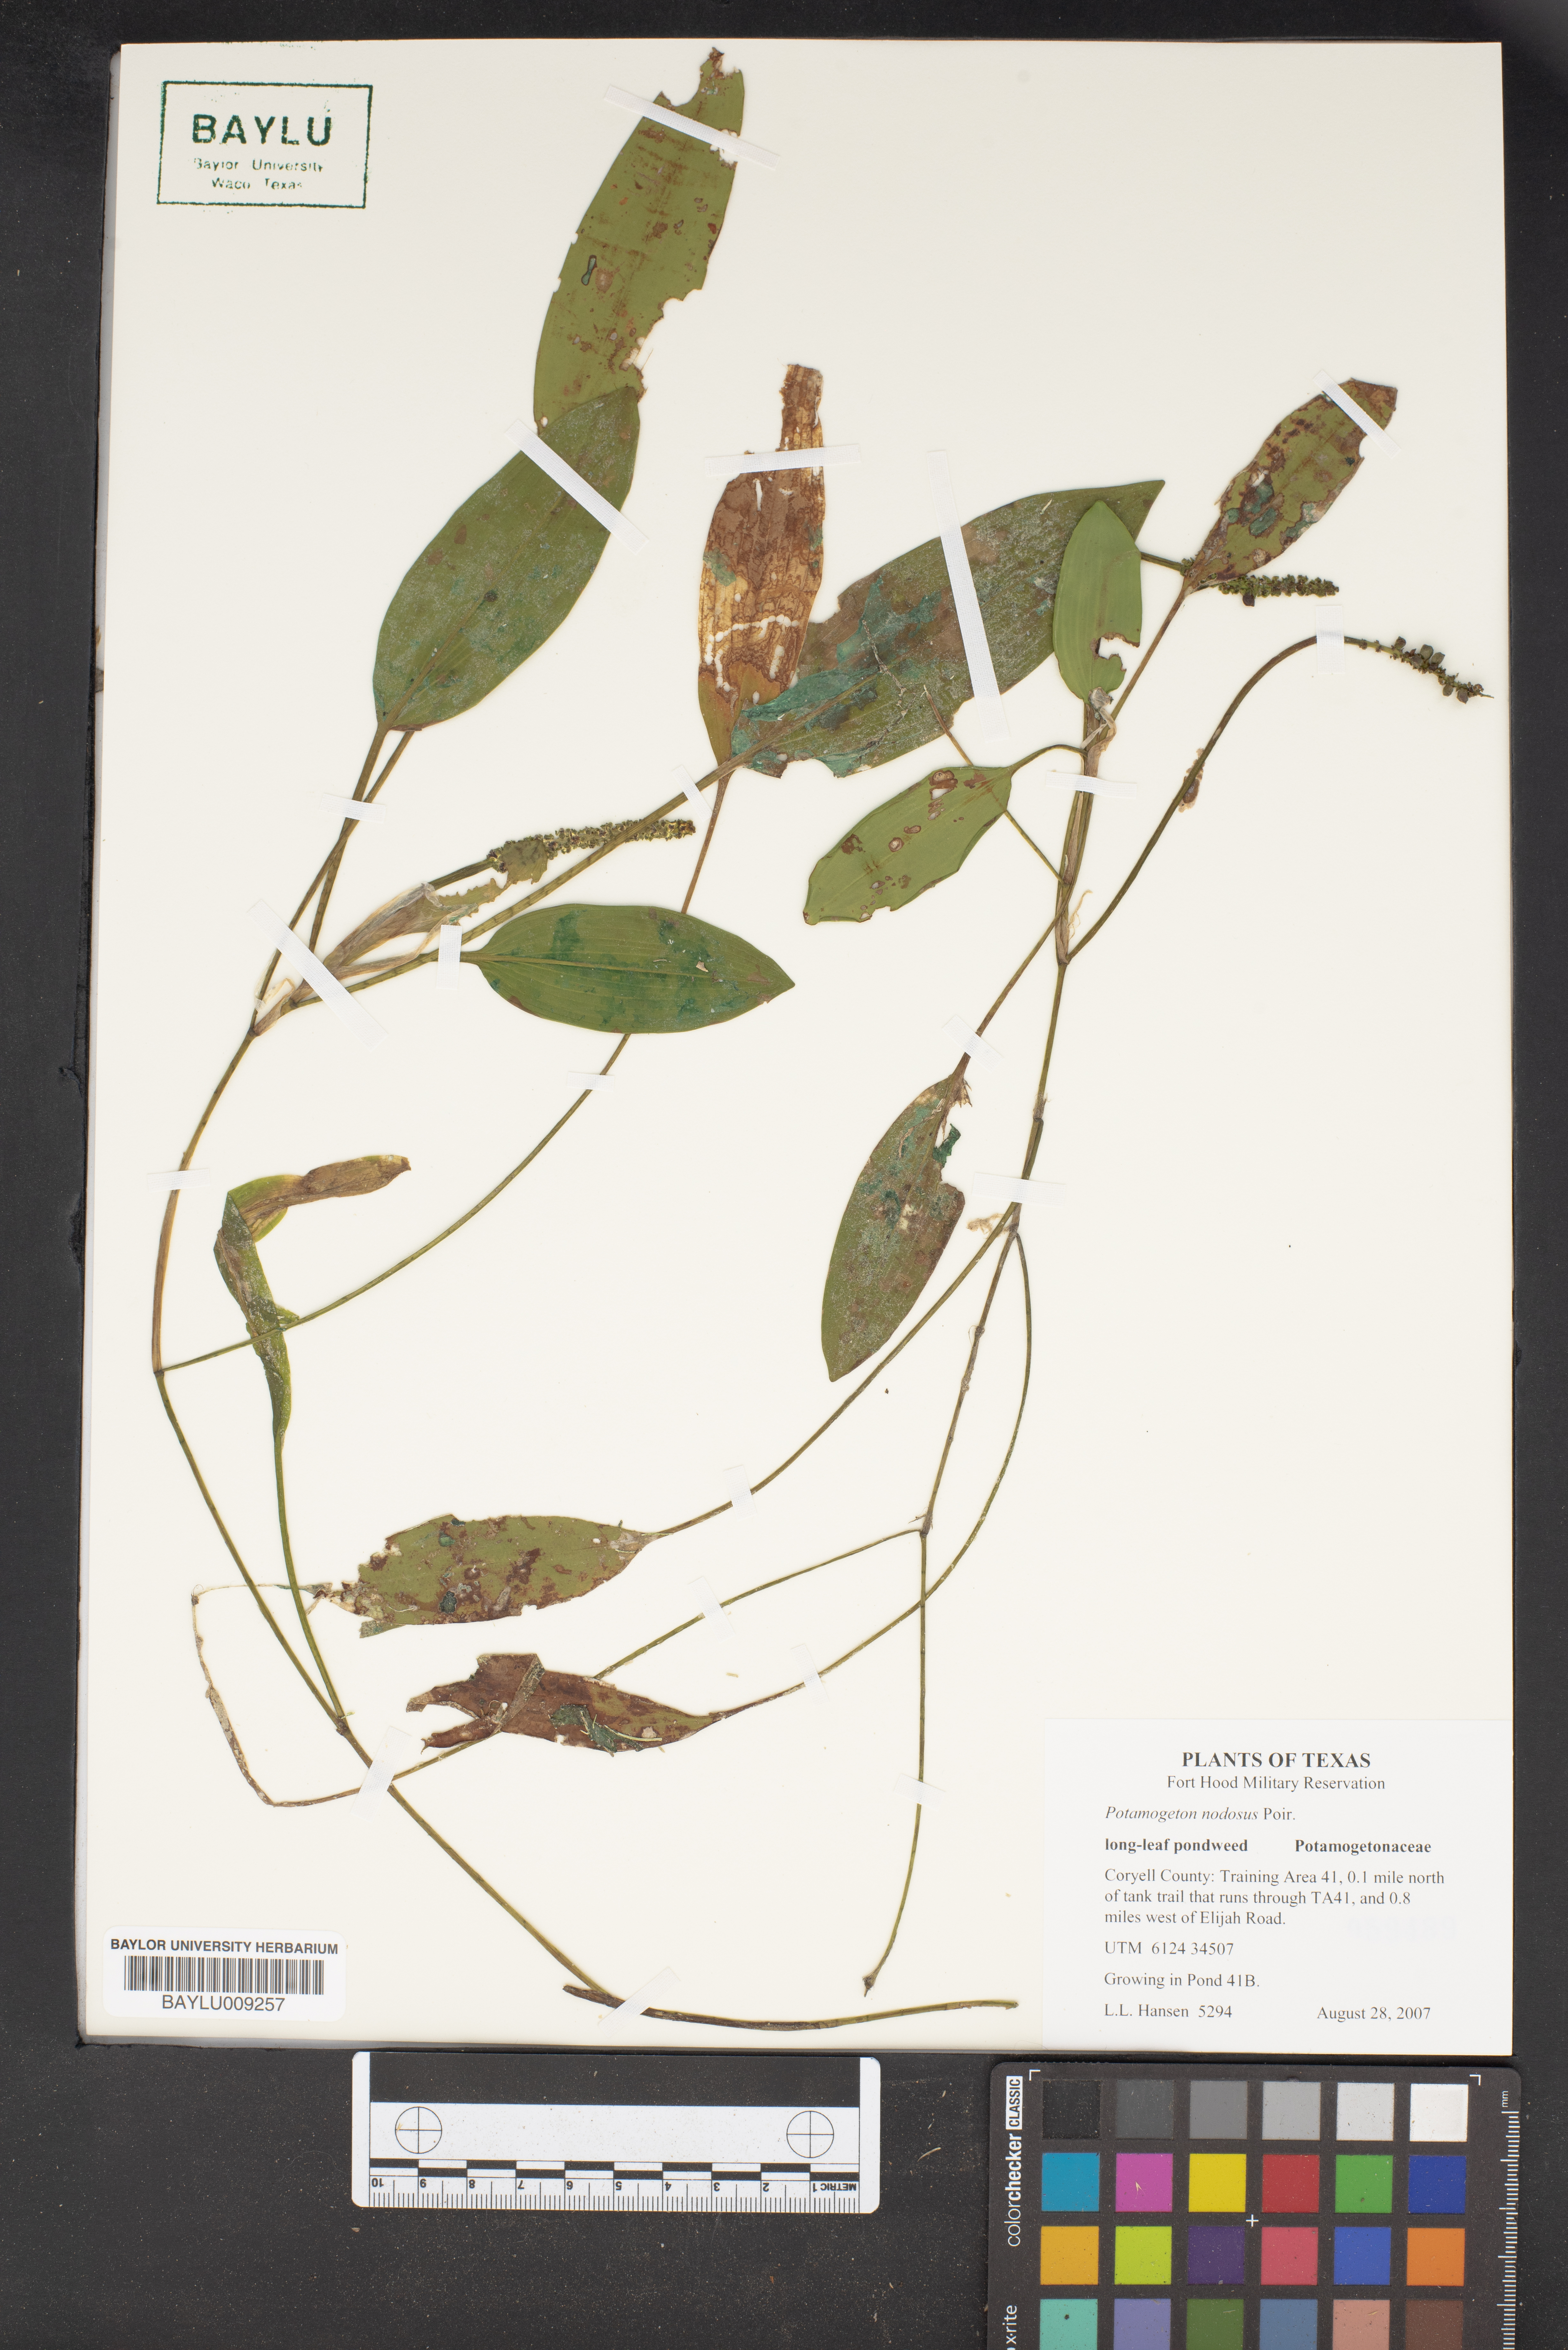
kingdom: Plantae
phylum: Tracheophyta
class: Liliopsida
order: Alismatales
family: Potamogetonaceae
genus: Potamogeton
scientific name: Potamogeton nodosus
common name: Loddon pondweed
